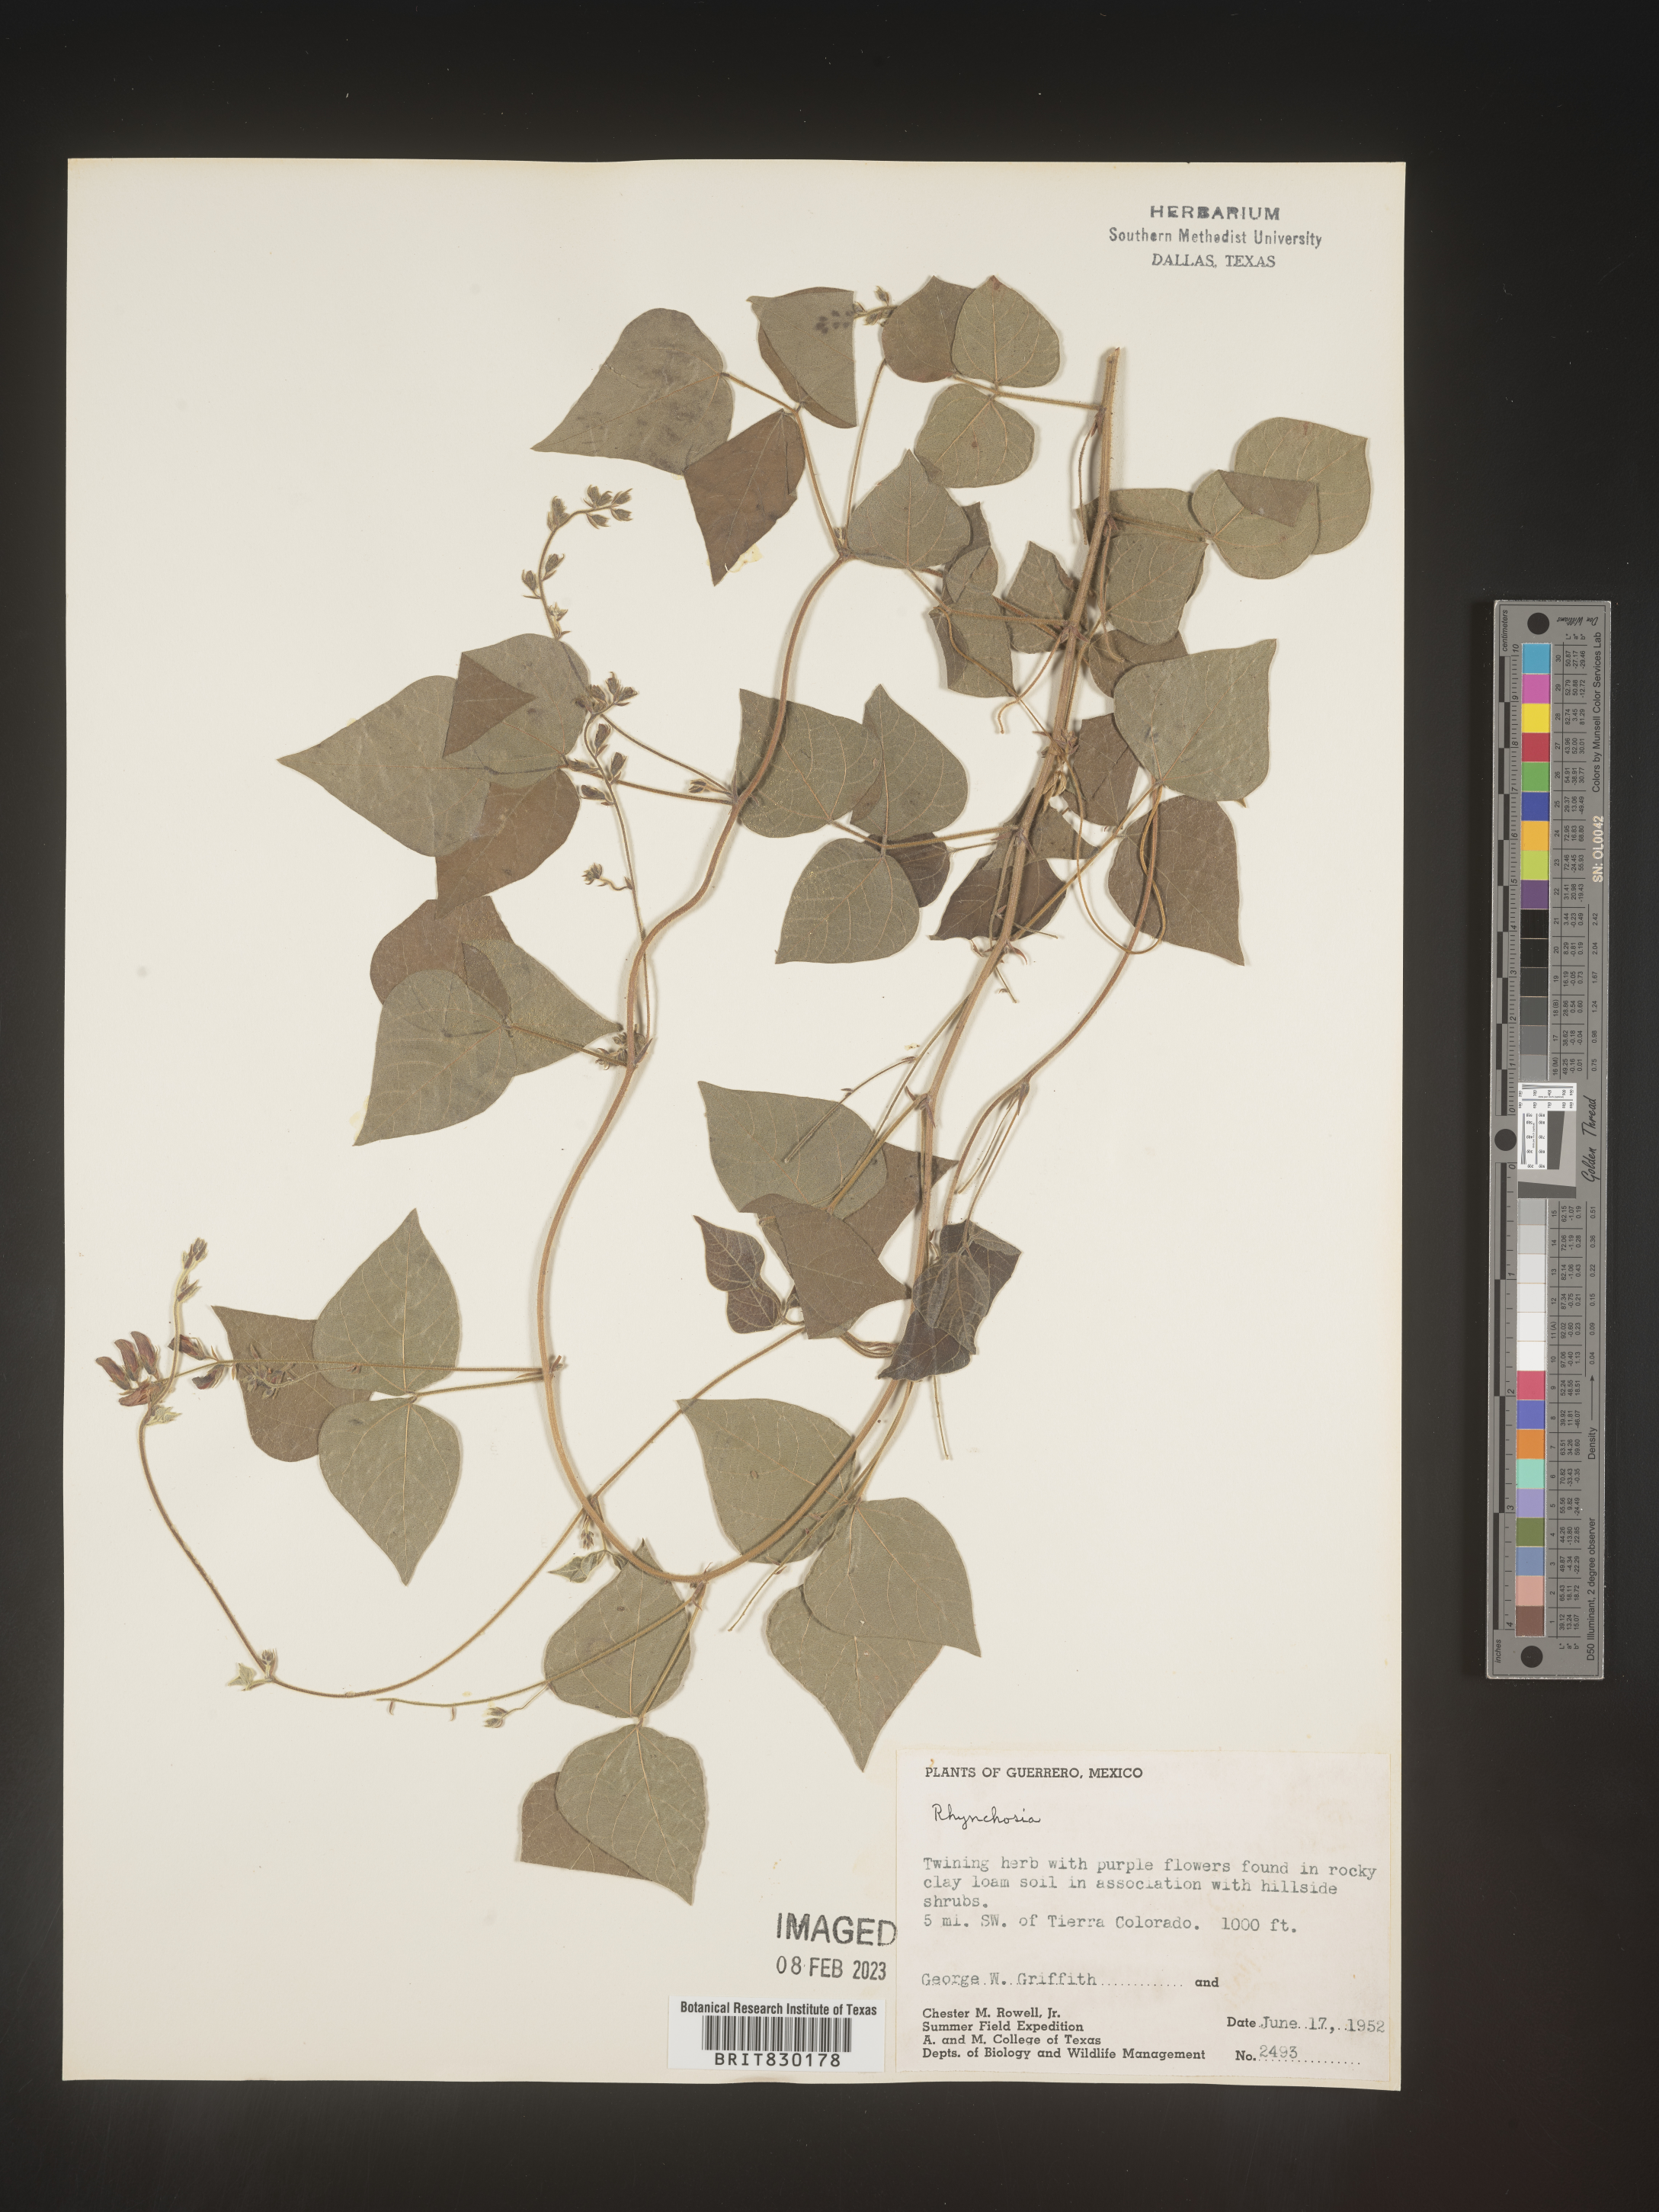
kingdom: Plantae
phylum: Tracheophyta
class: Magnoliopsida
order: Fabales
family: Fabaceae
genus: Rhynchosia
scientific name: Rhynchosia
